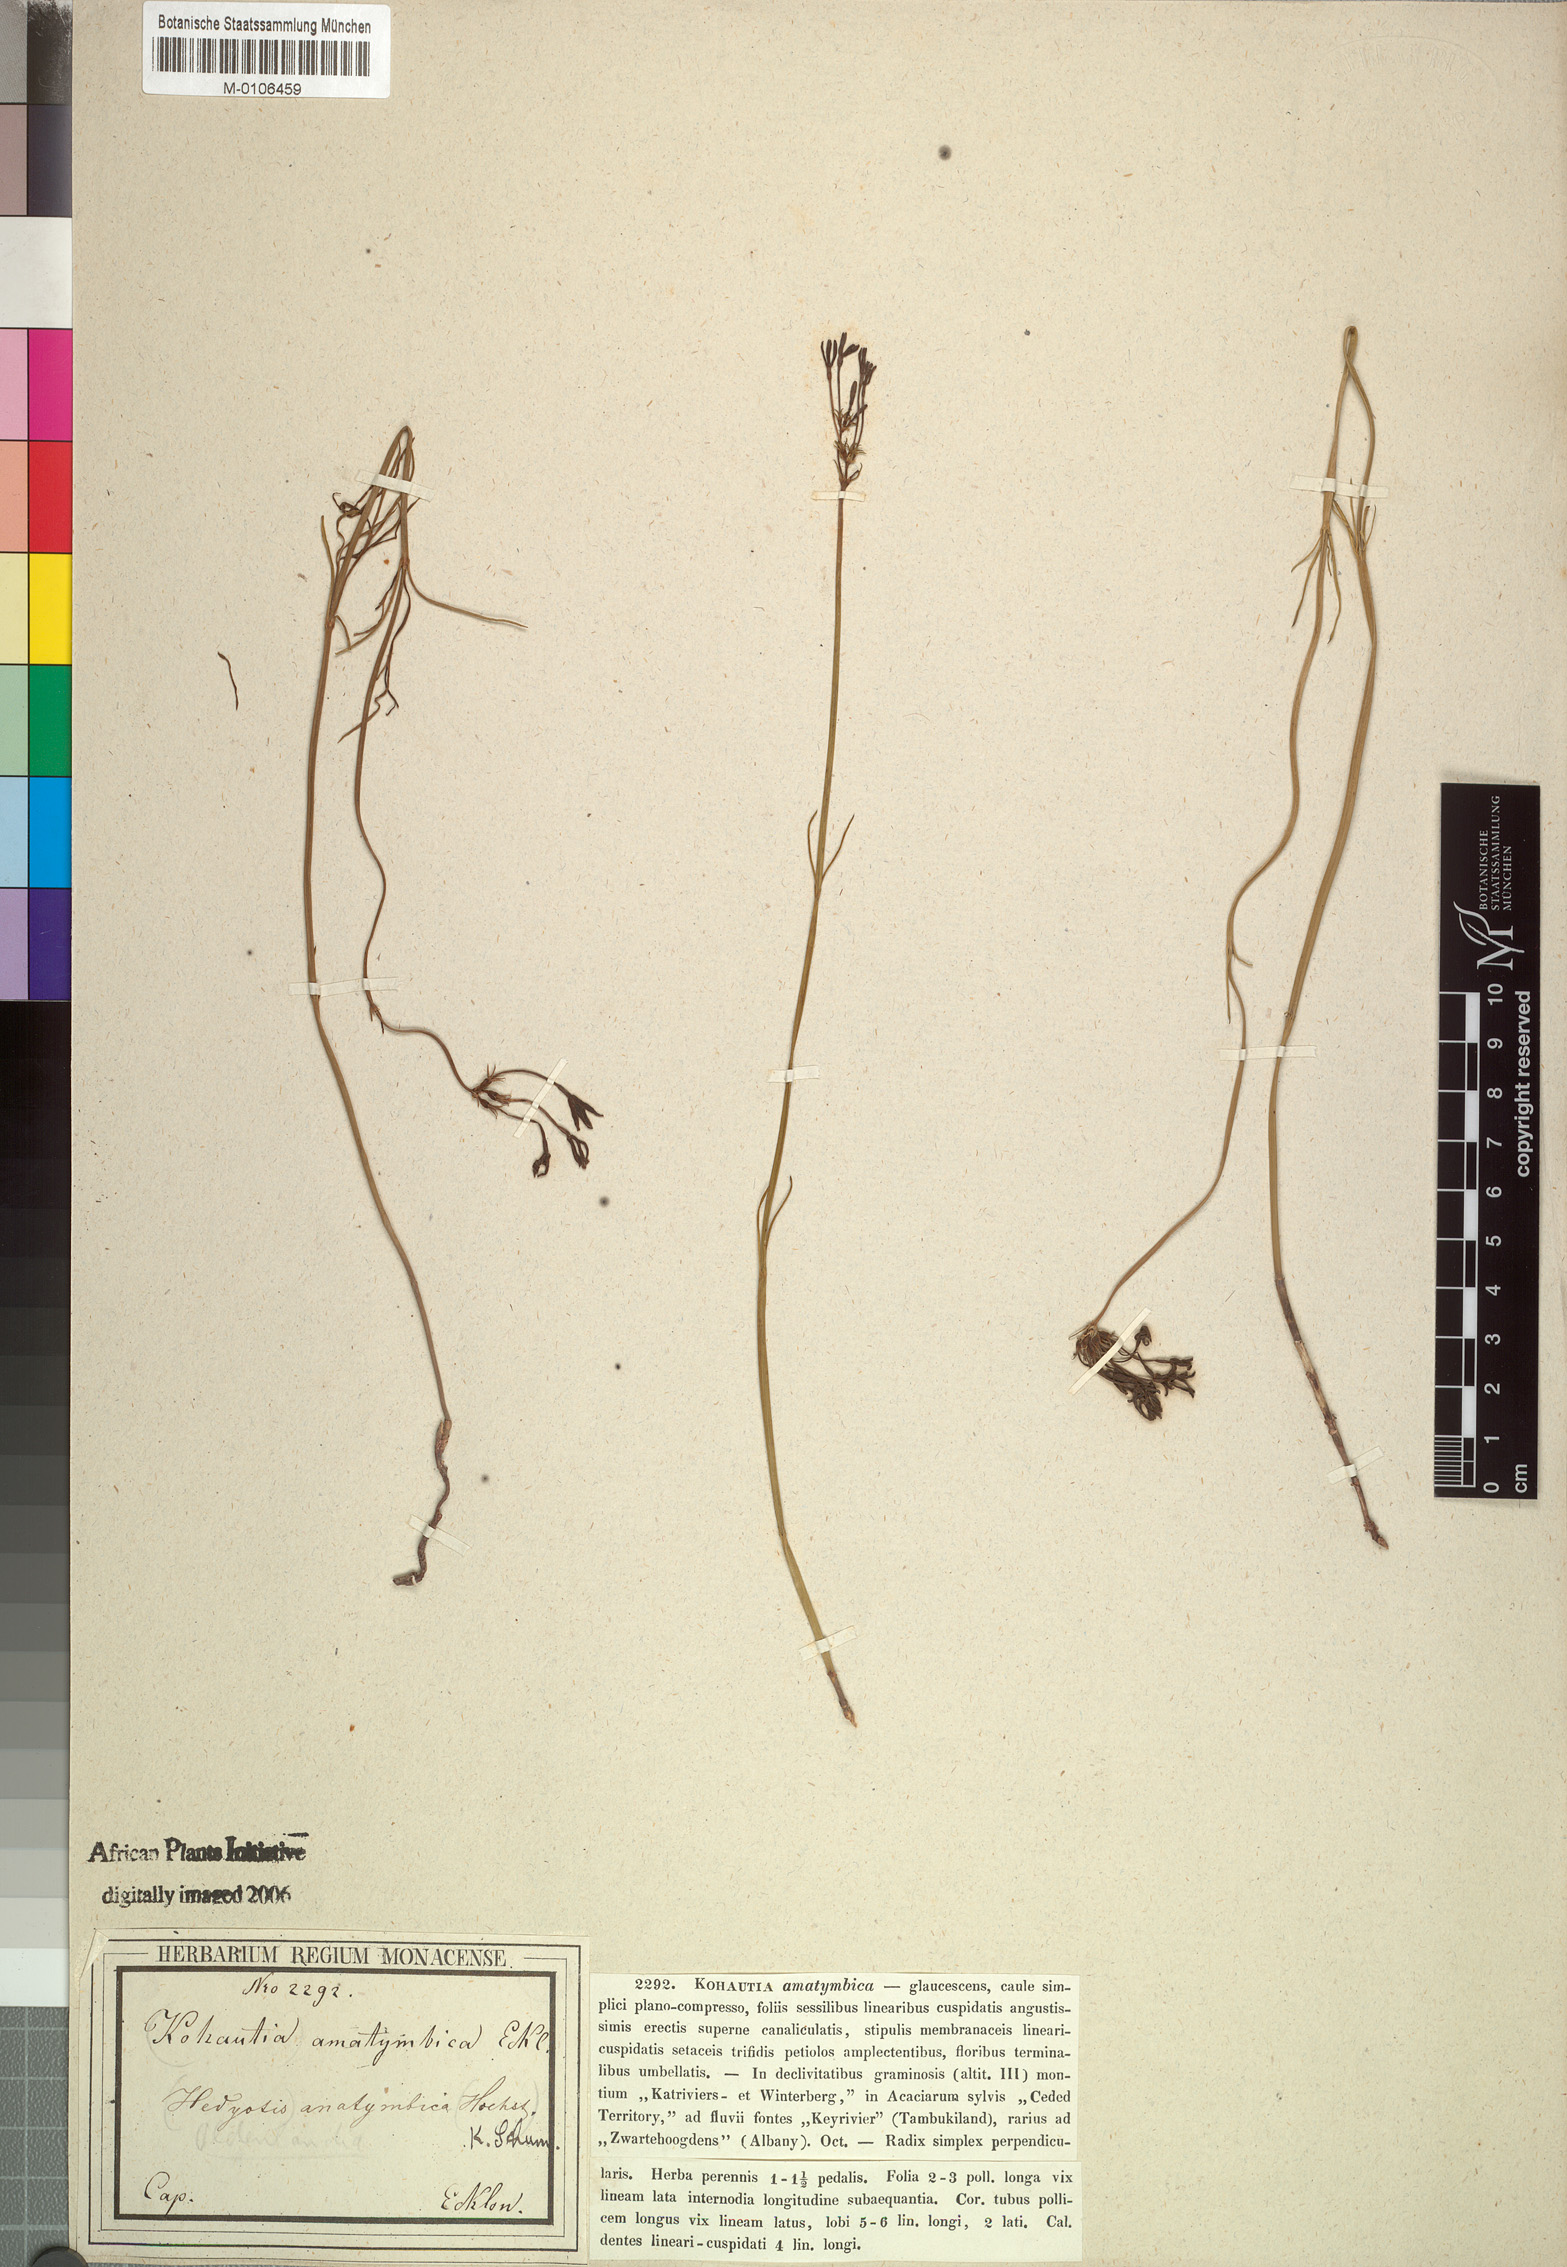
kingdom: Plantae
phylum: Tracheophyta
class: Magnoliopsida
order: Gentianales
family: Rubiaceae
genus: Kohautia
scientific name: Kohautia amatymbica
